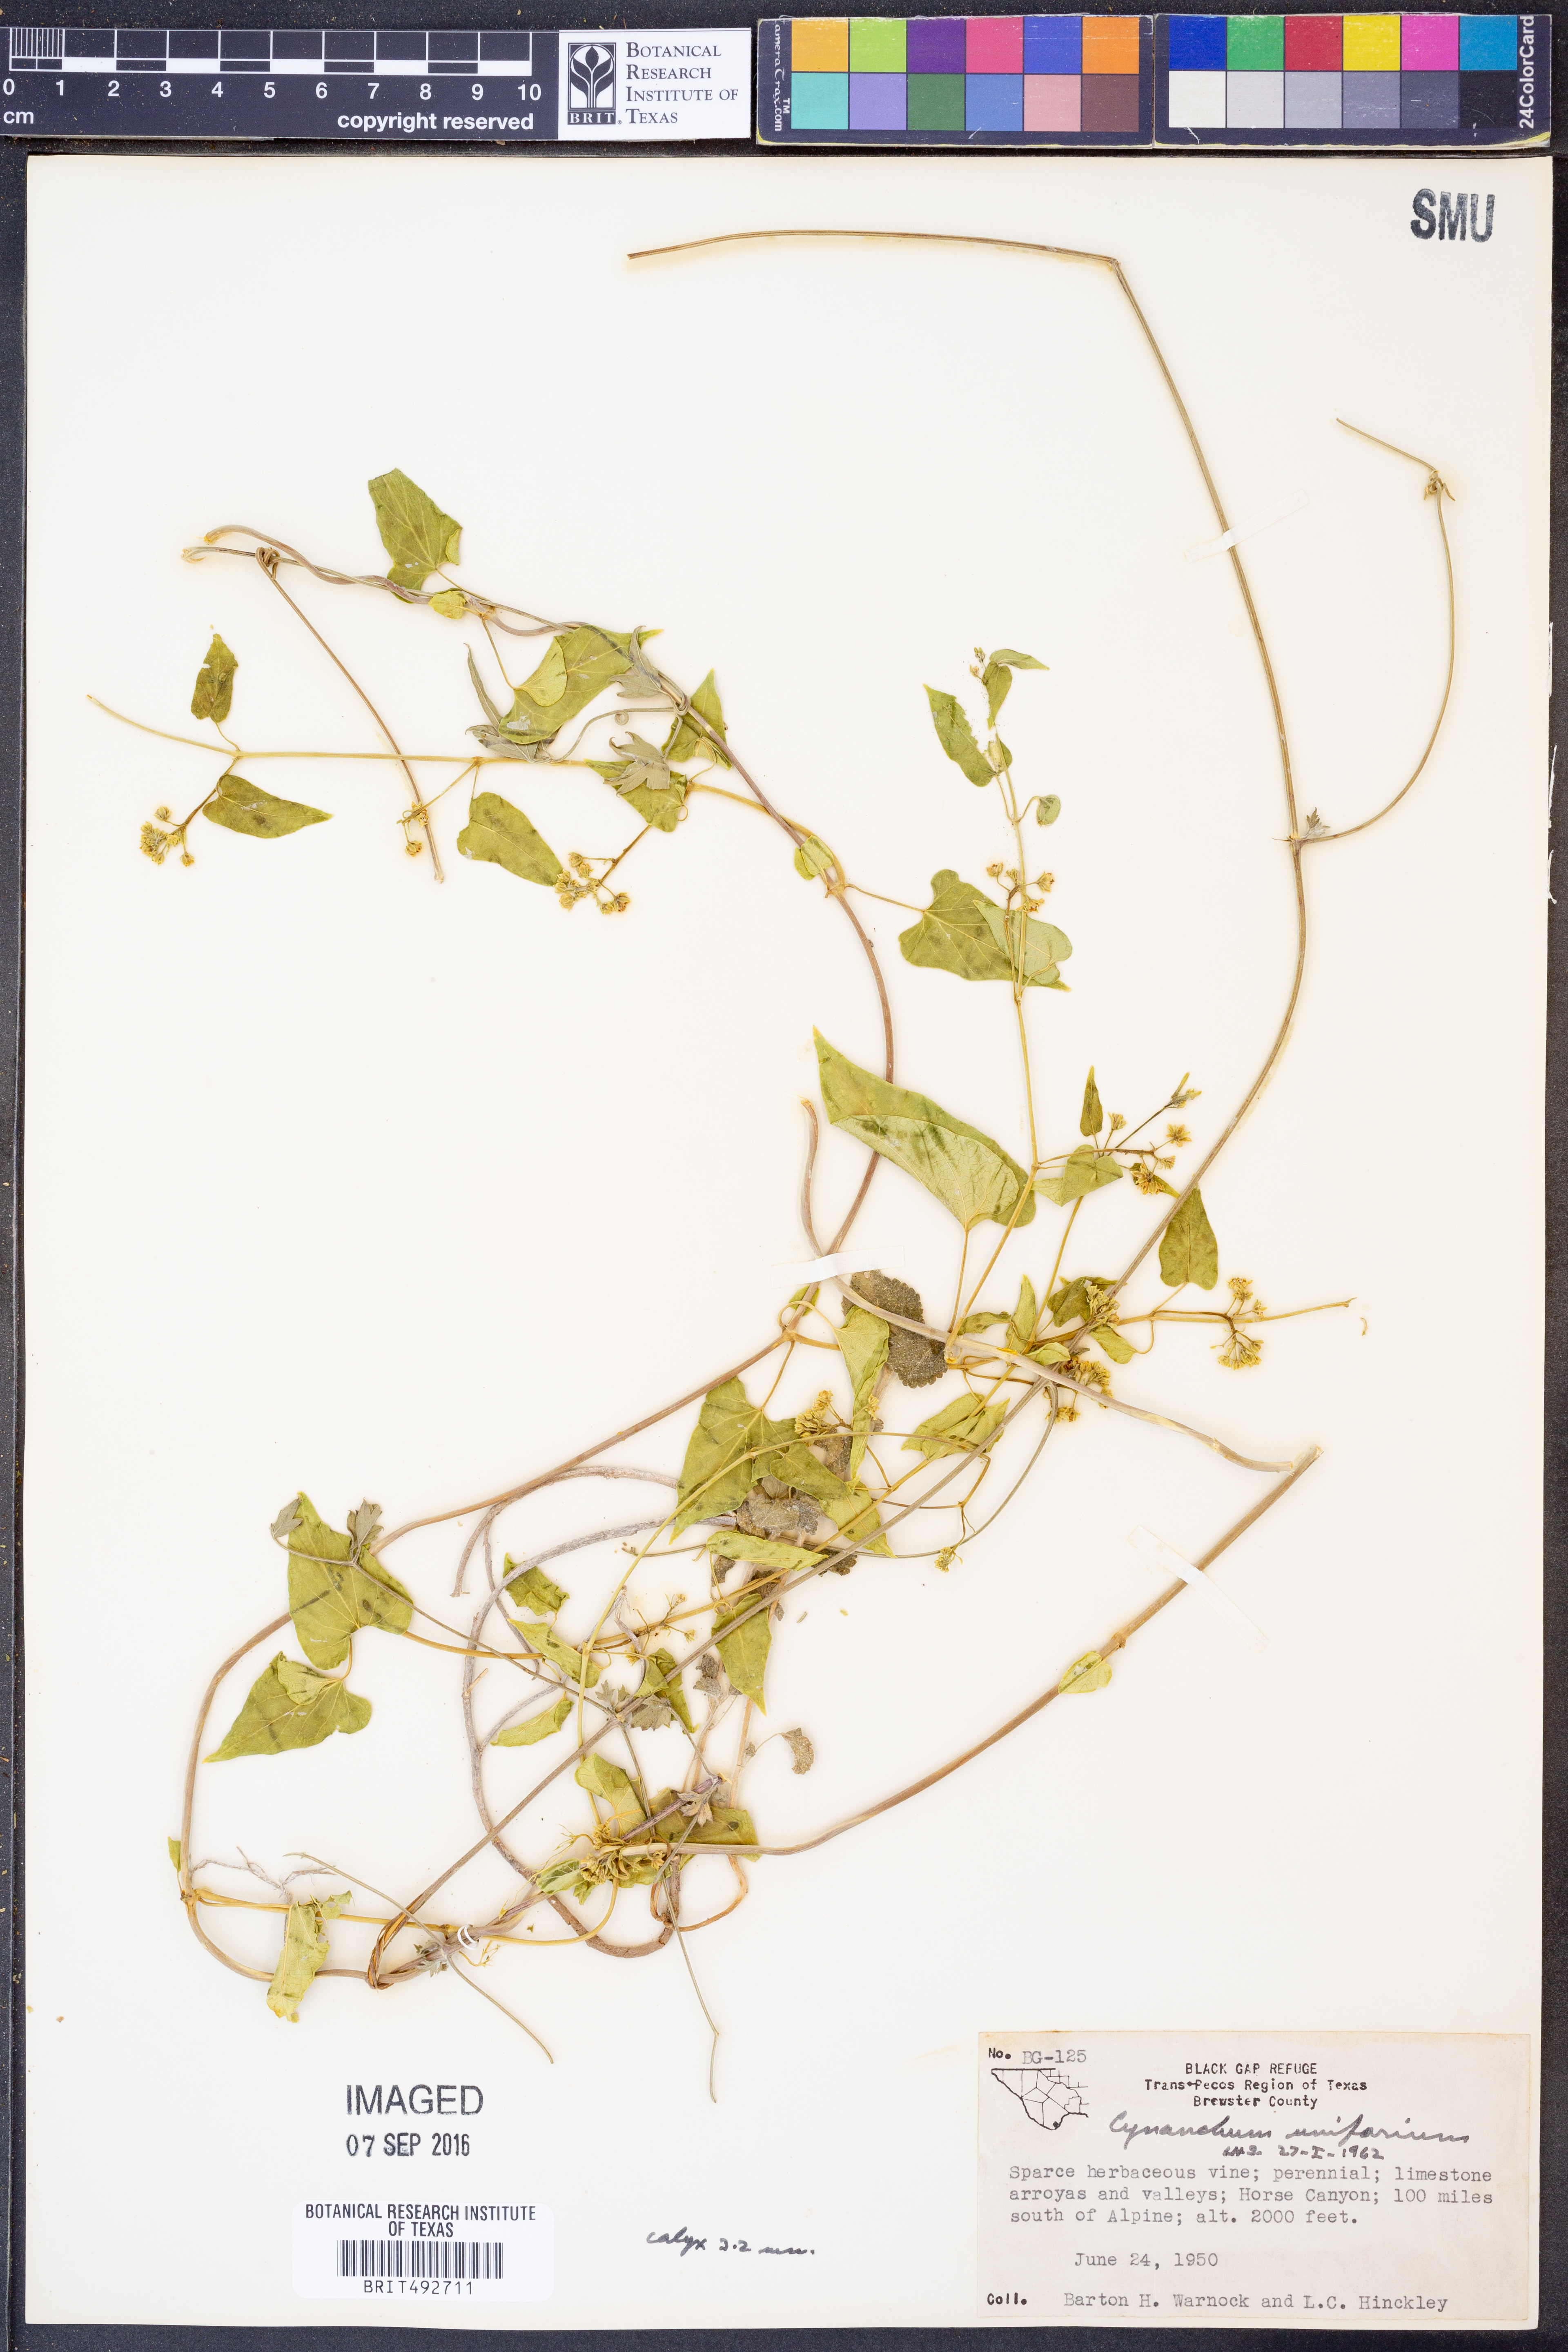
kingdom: Plantae
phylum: Tracheophyta
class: Magnoliopsida
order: Gentianales
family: Apocynaceae
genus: Cynanchum
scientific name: Cynanchum racemosum
